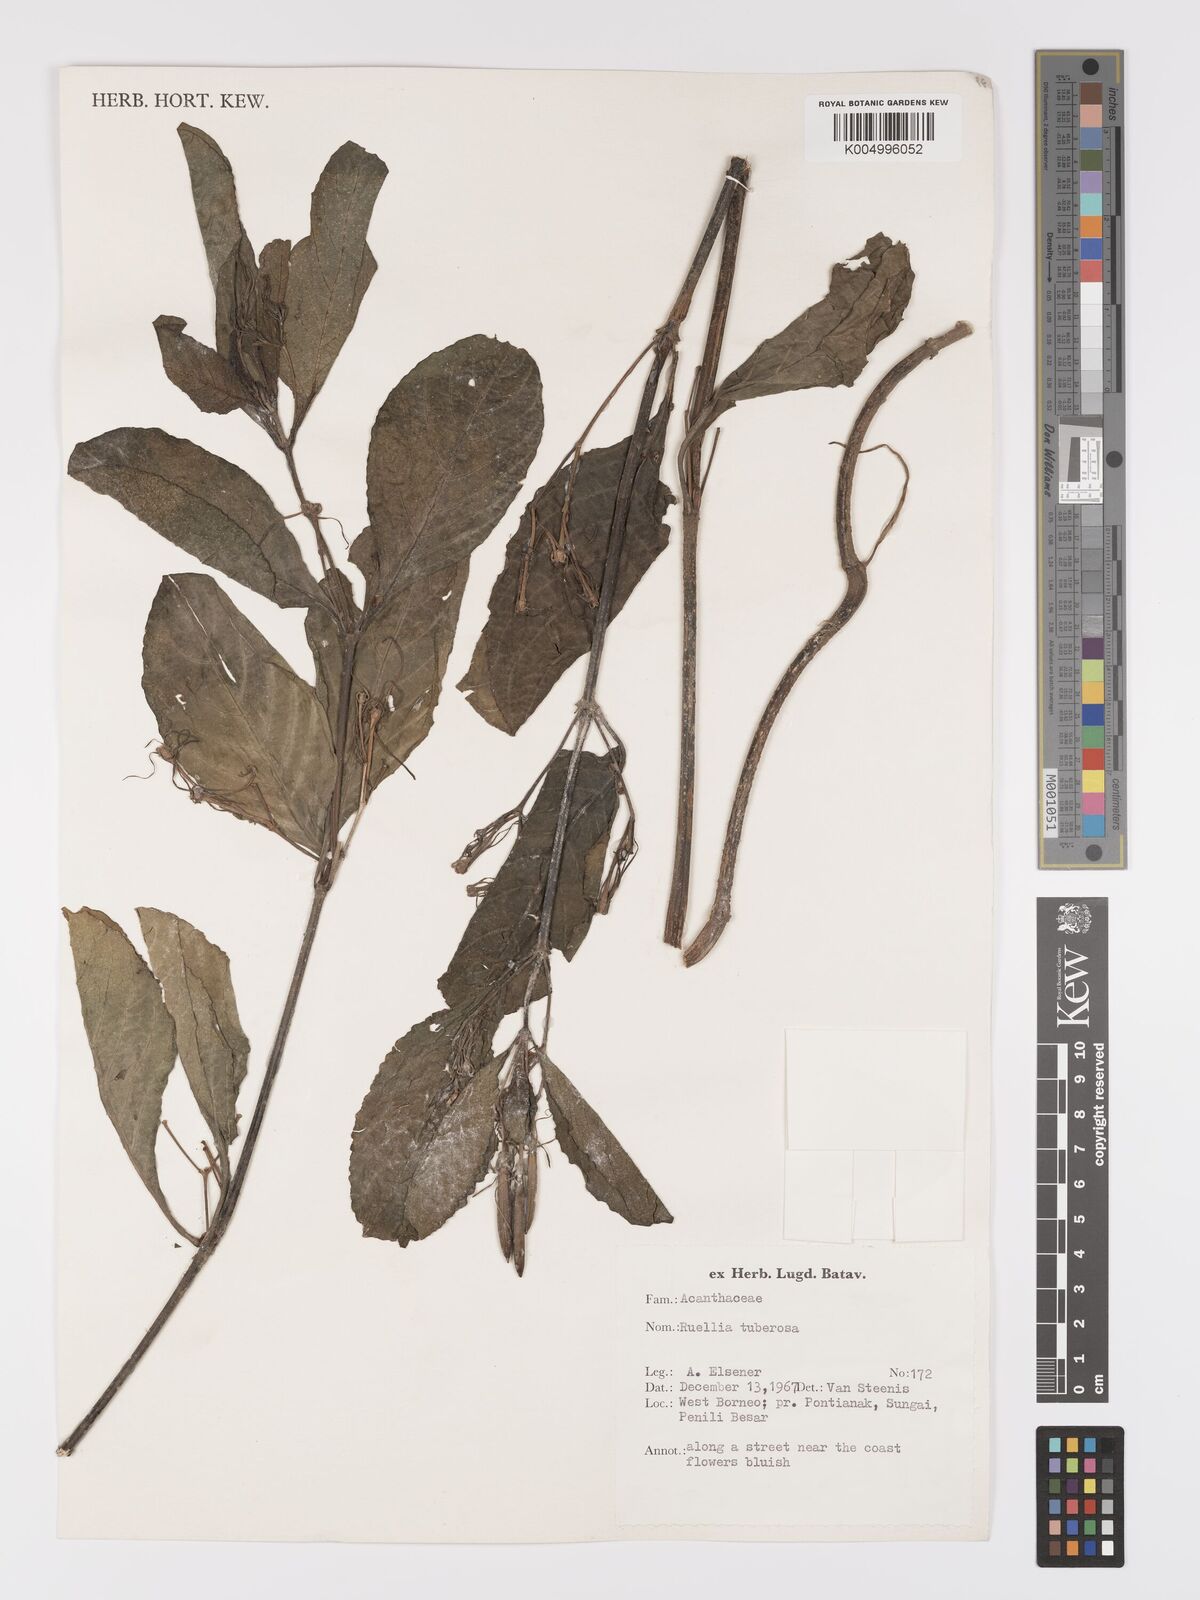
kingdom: Plantae
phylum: Tracheophyta
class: Magnoliopsida
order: Lamiales
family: Acanthaceae
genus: Ruellia
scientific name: Ruellia tuberosa
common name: Devil's bit
